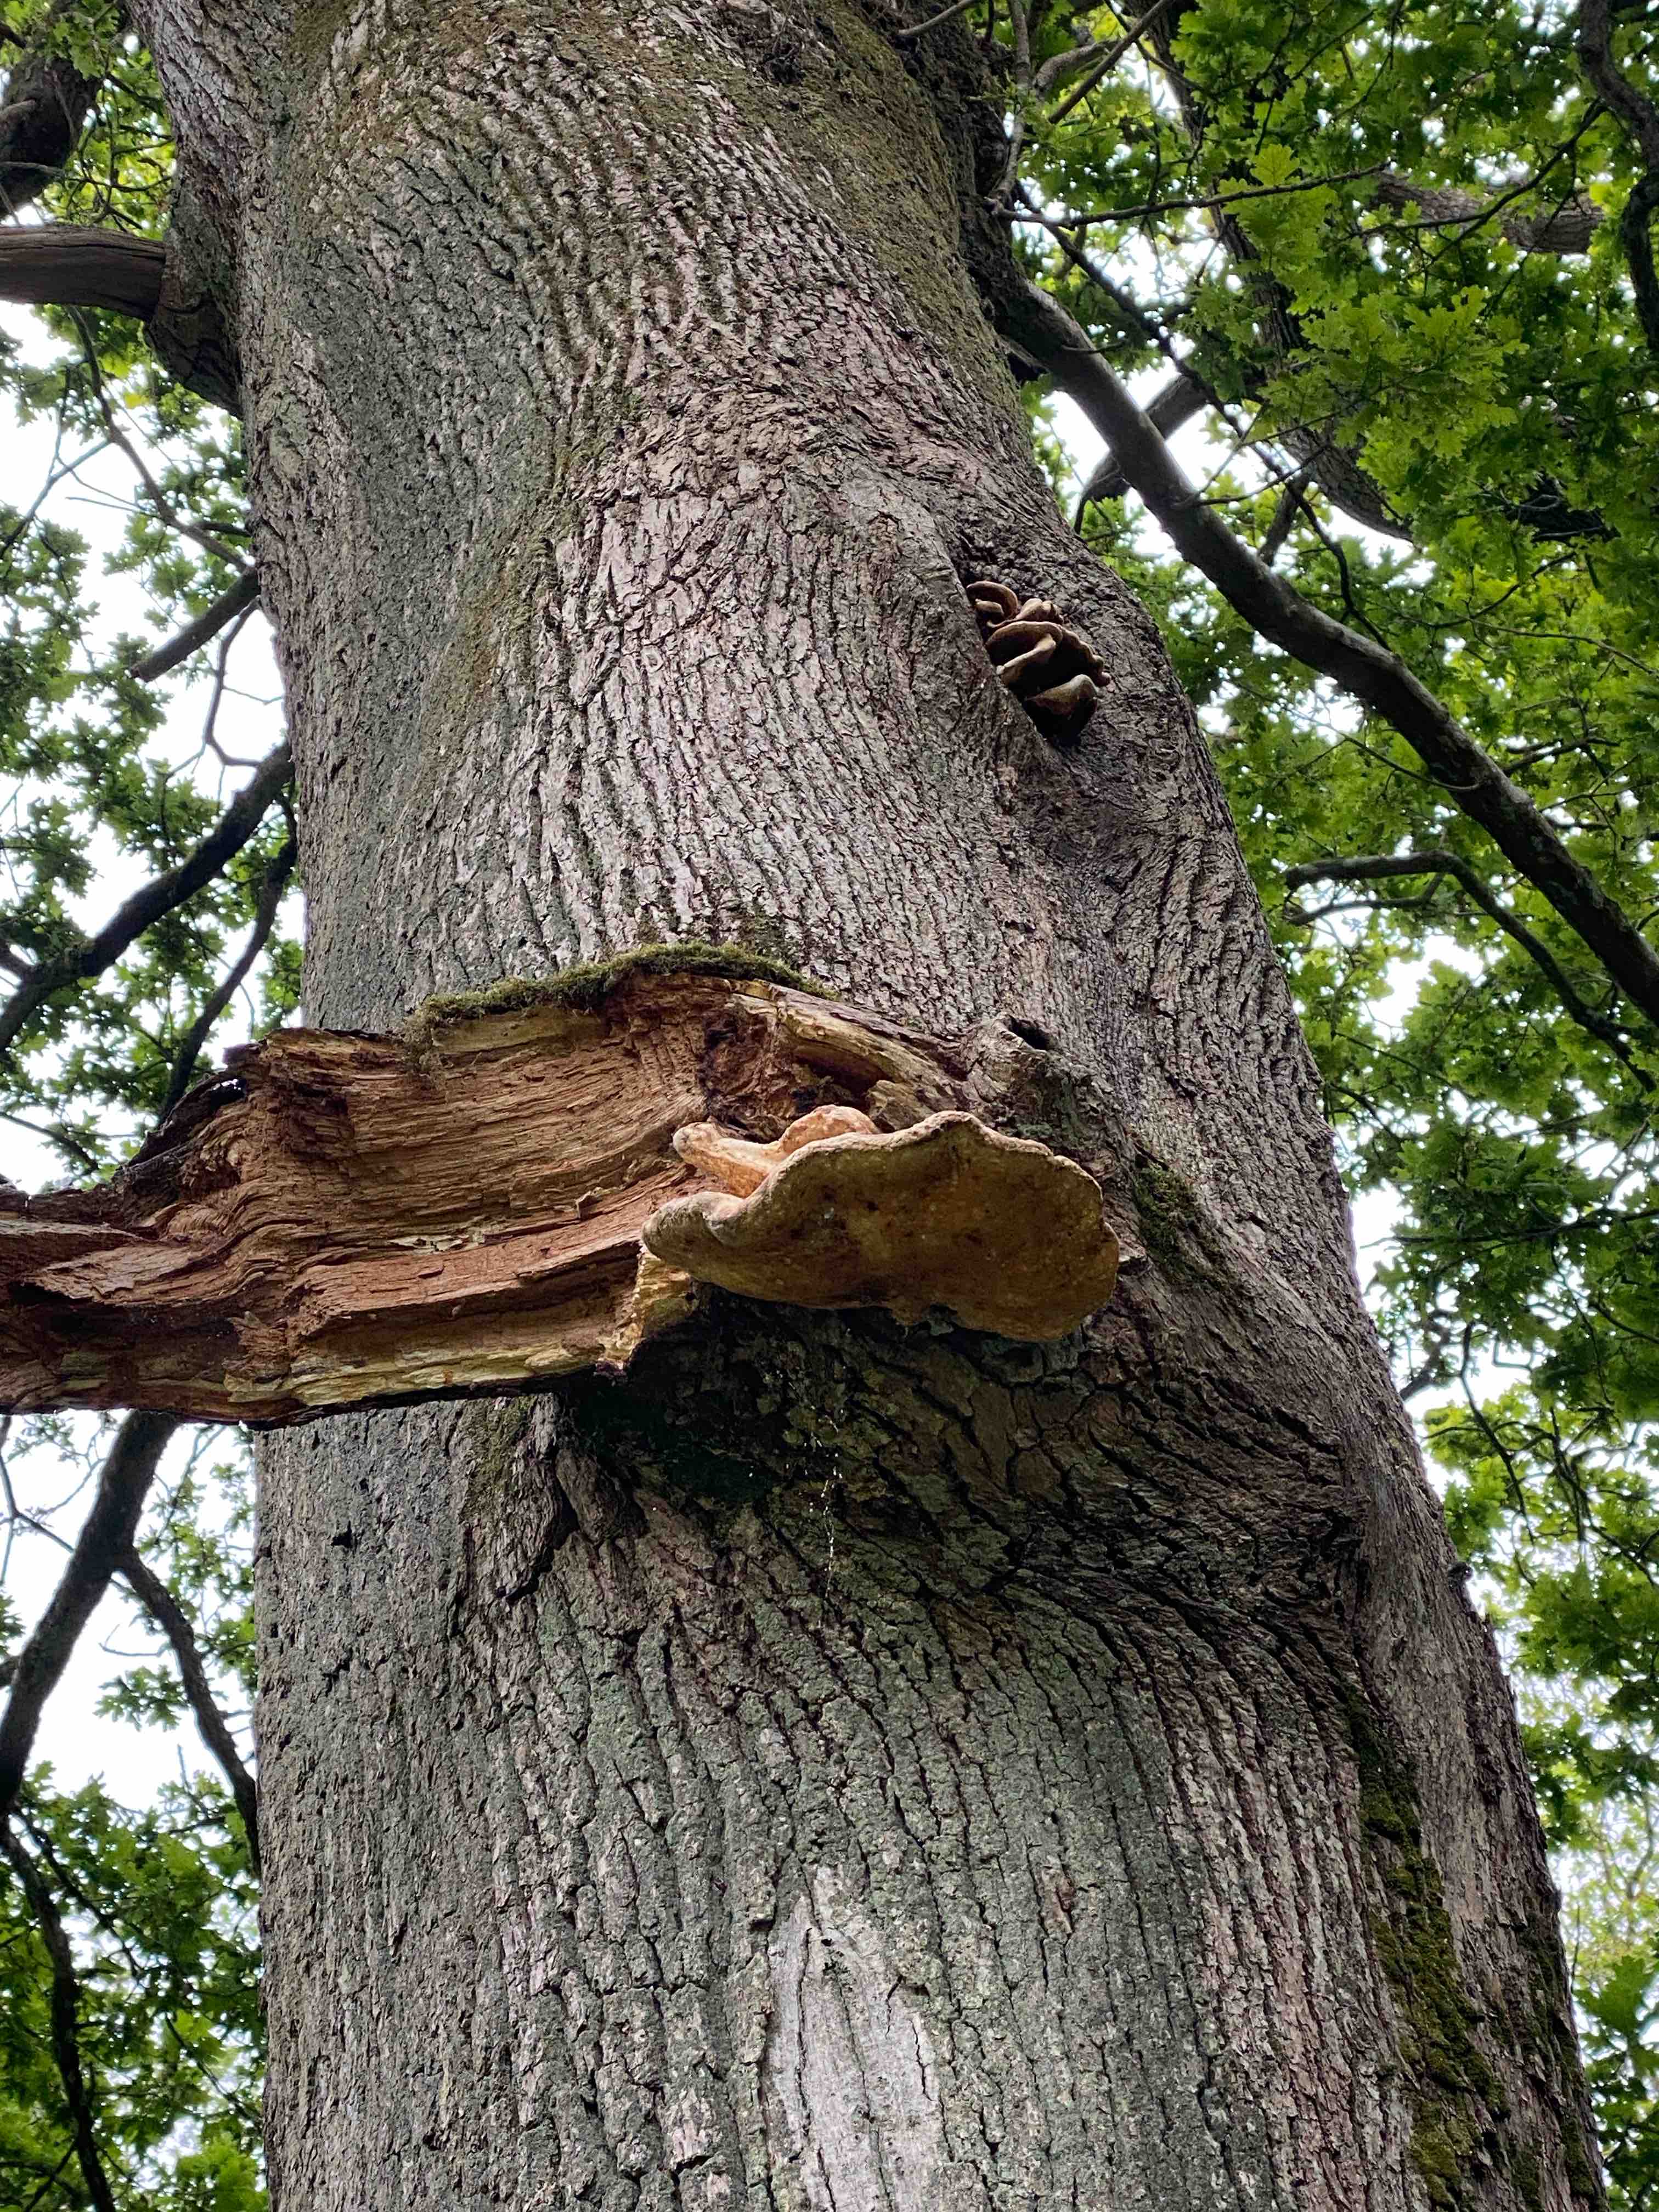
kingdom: Fungi
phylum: Basidiomycota
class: Agaricomycetes
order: Polyporales
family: Laetiporaceae
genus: Laetiporus
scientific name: Laetiporus sulphureus
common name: svovlporesvamp
